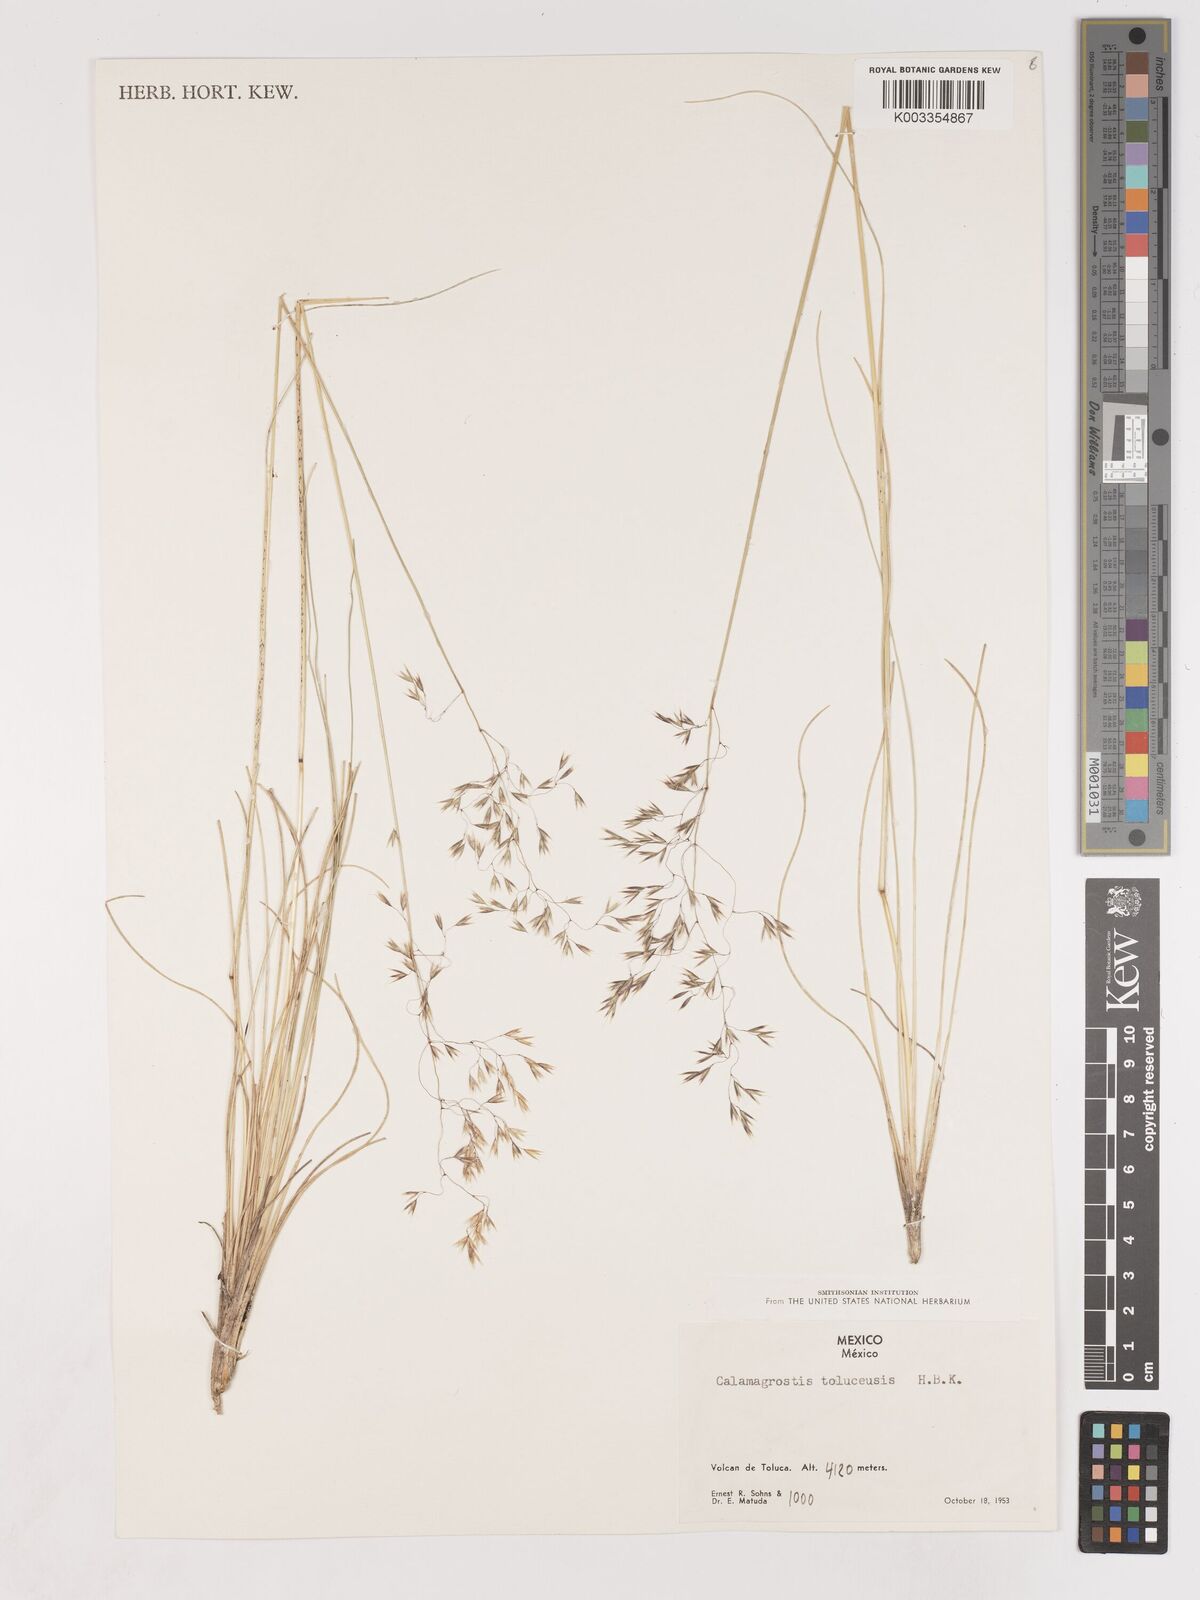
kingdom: Plantae
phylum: Tracheophyta
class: Liliopsida
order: Poales
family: Poaceae
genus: Peyritschia
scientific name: Peyritschia tolucensis
